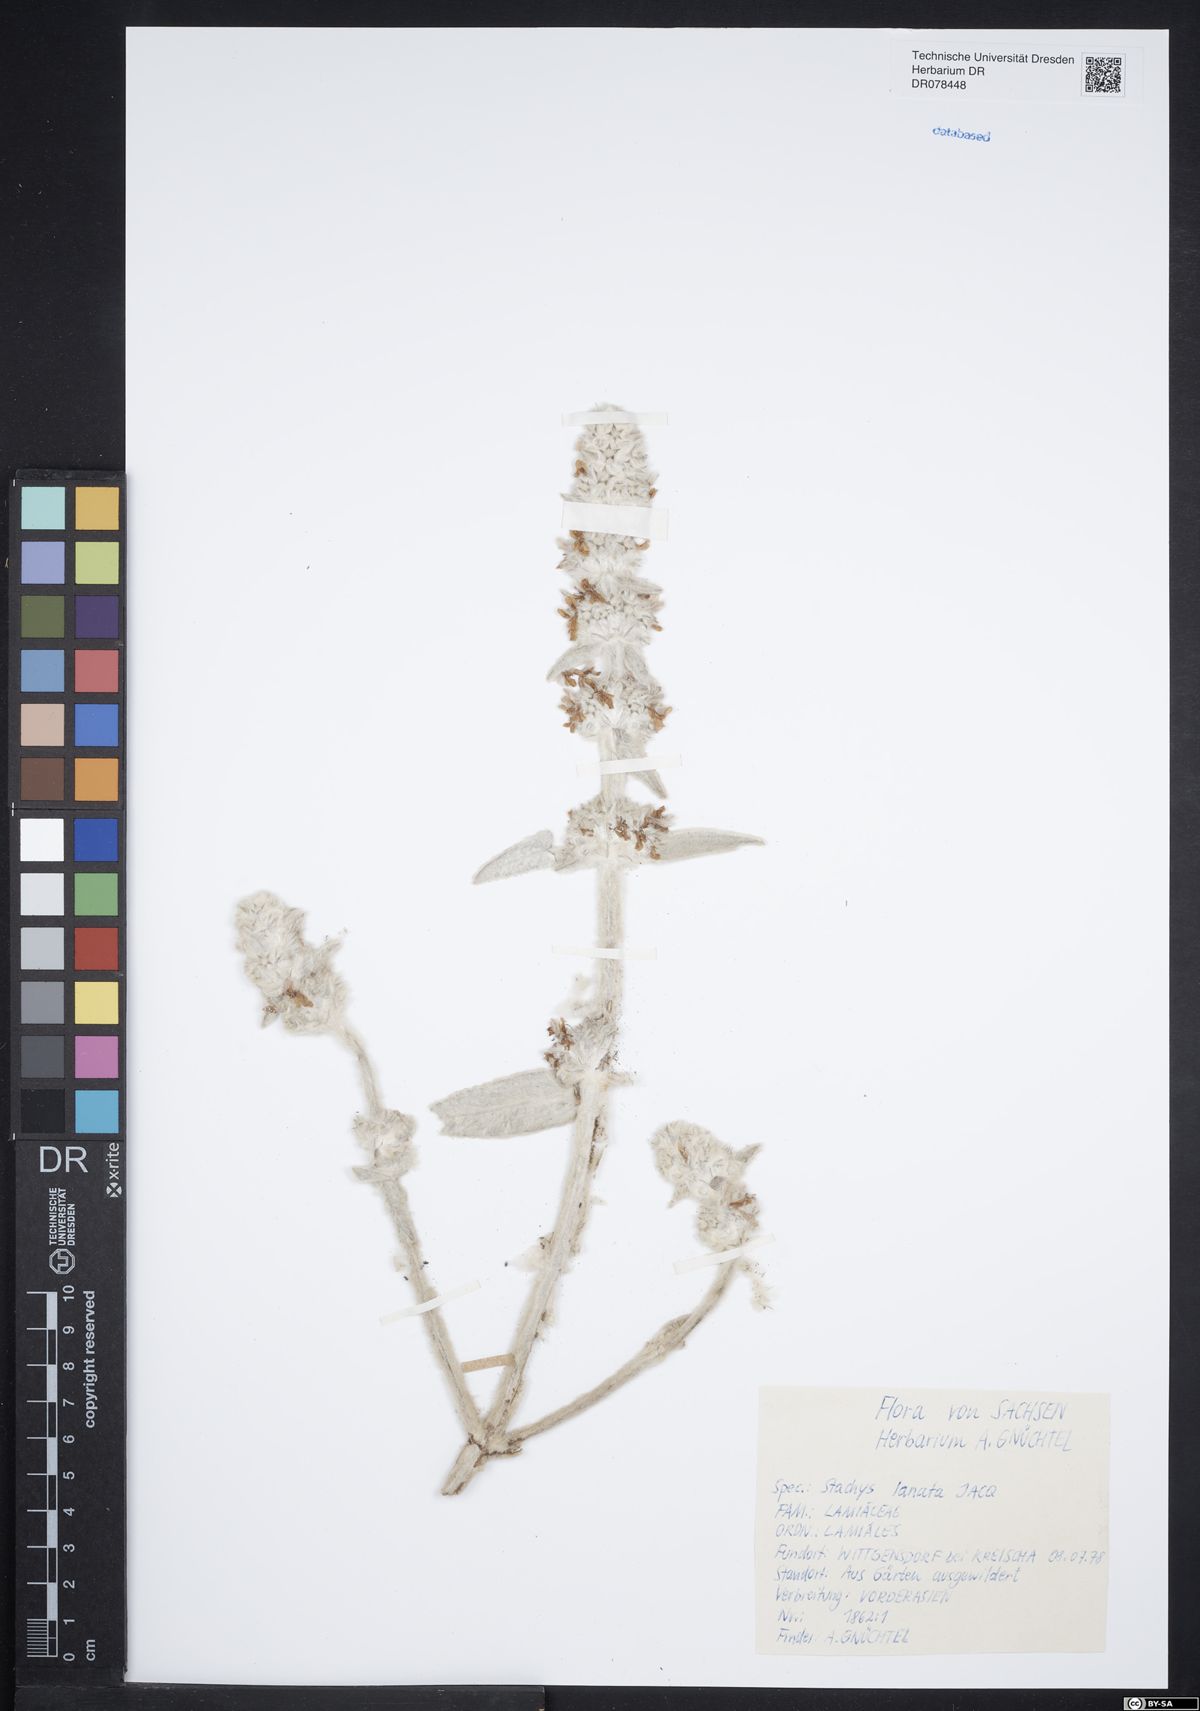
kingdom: Plantae
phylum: Tracheophyta
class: Magnoliopsida
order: Lamiales
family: Lamiaceae
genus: Stachys
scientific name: Stachys byzantina
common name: Lamb's-ear
